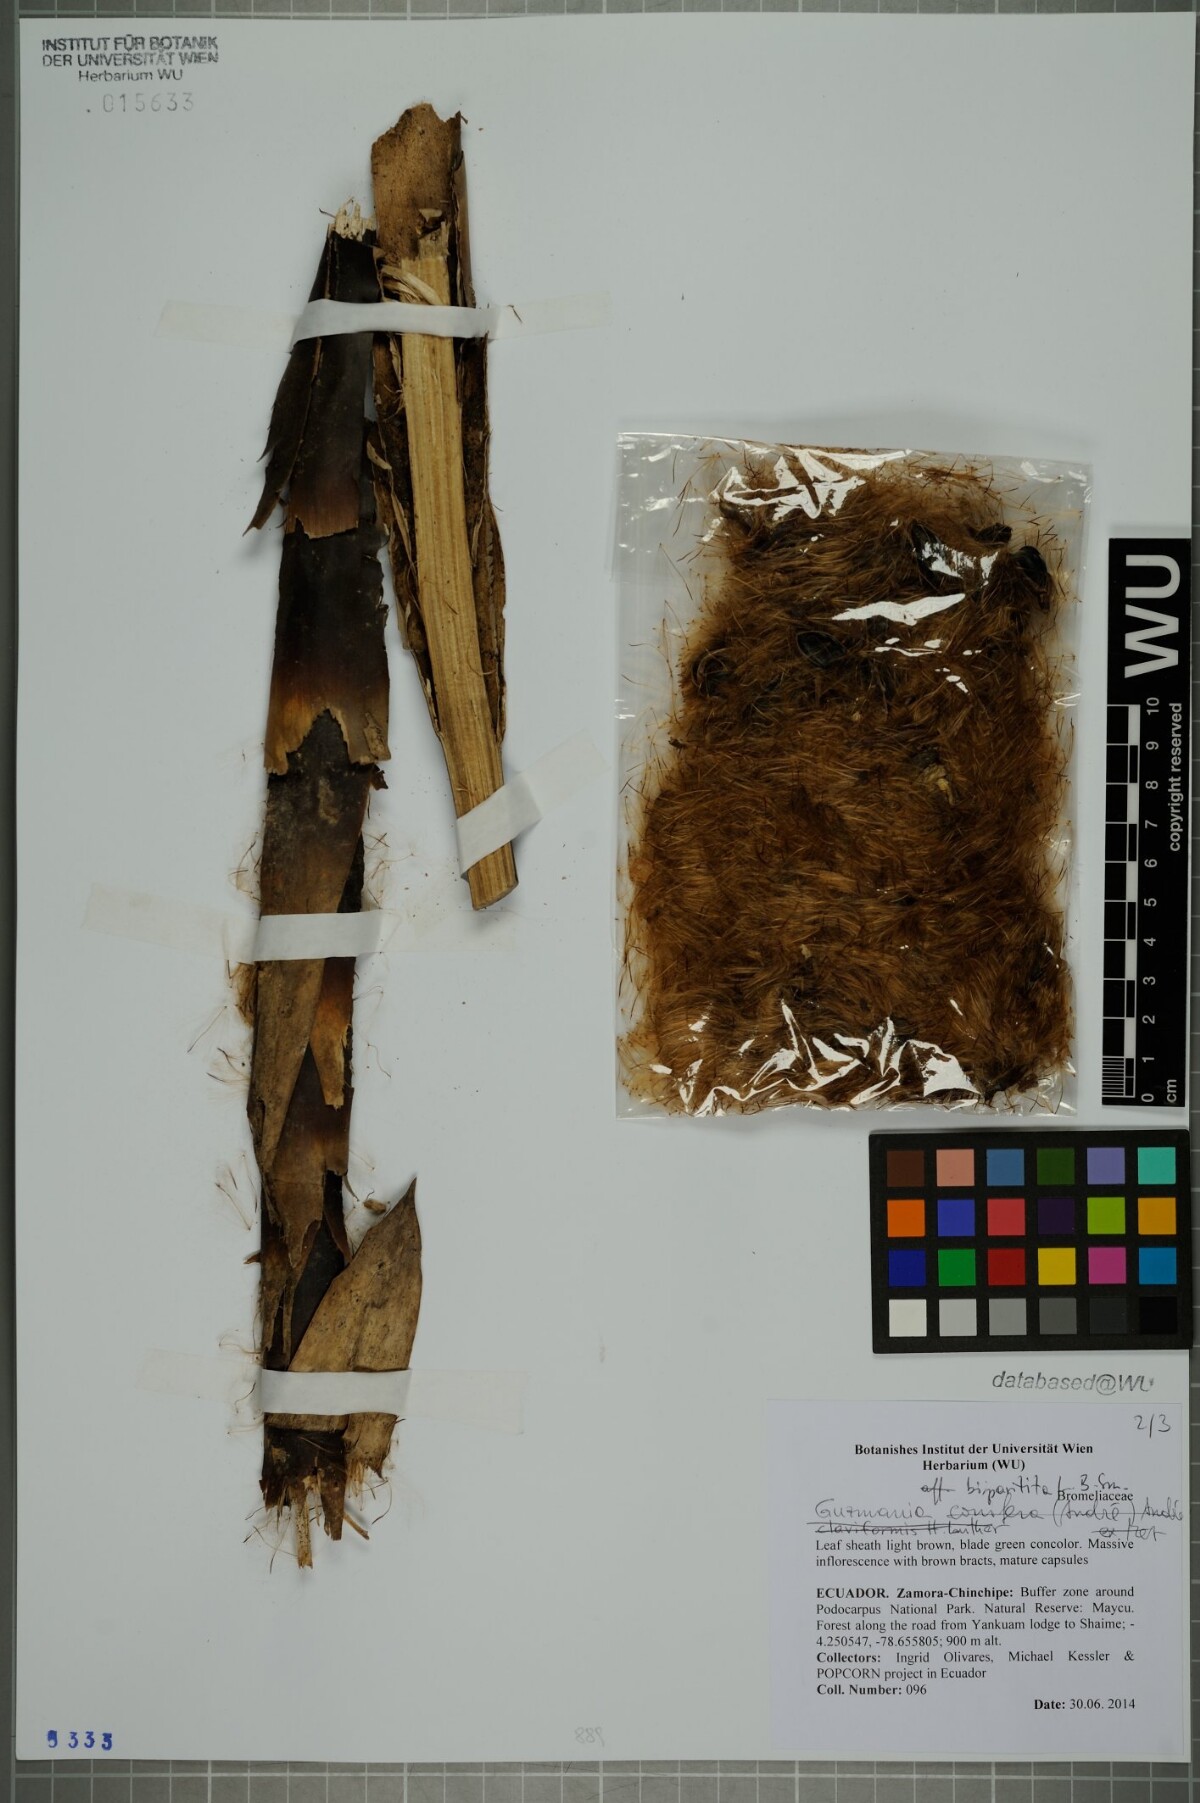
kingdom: Plantae
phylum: Tracheophyta
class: Liliopsida
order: Poales
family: Bromeliaceae
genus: Guzmania
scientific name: Guzmania bipartita
